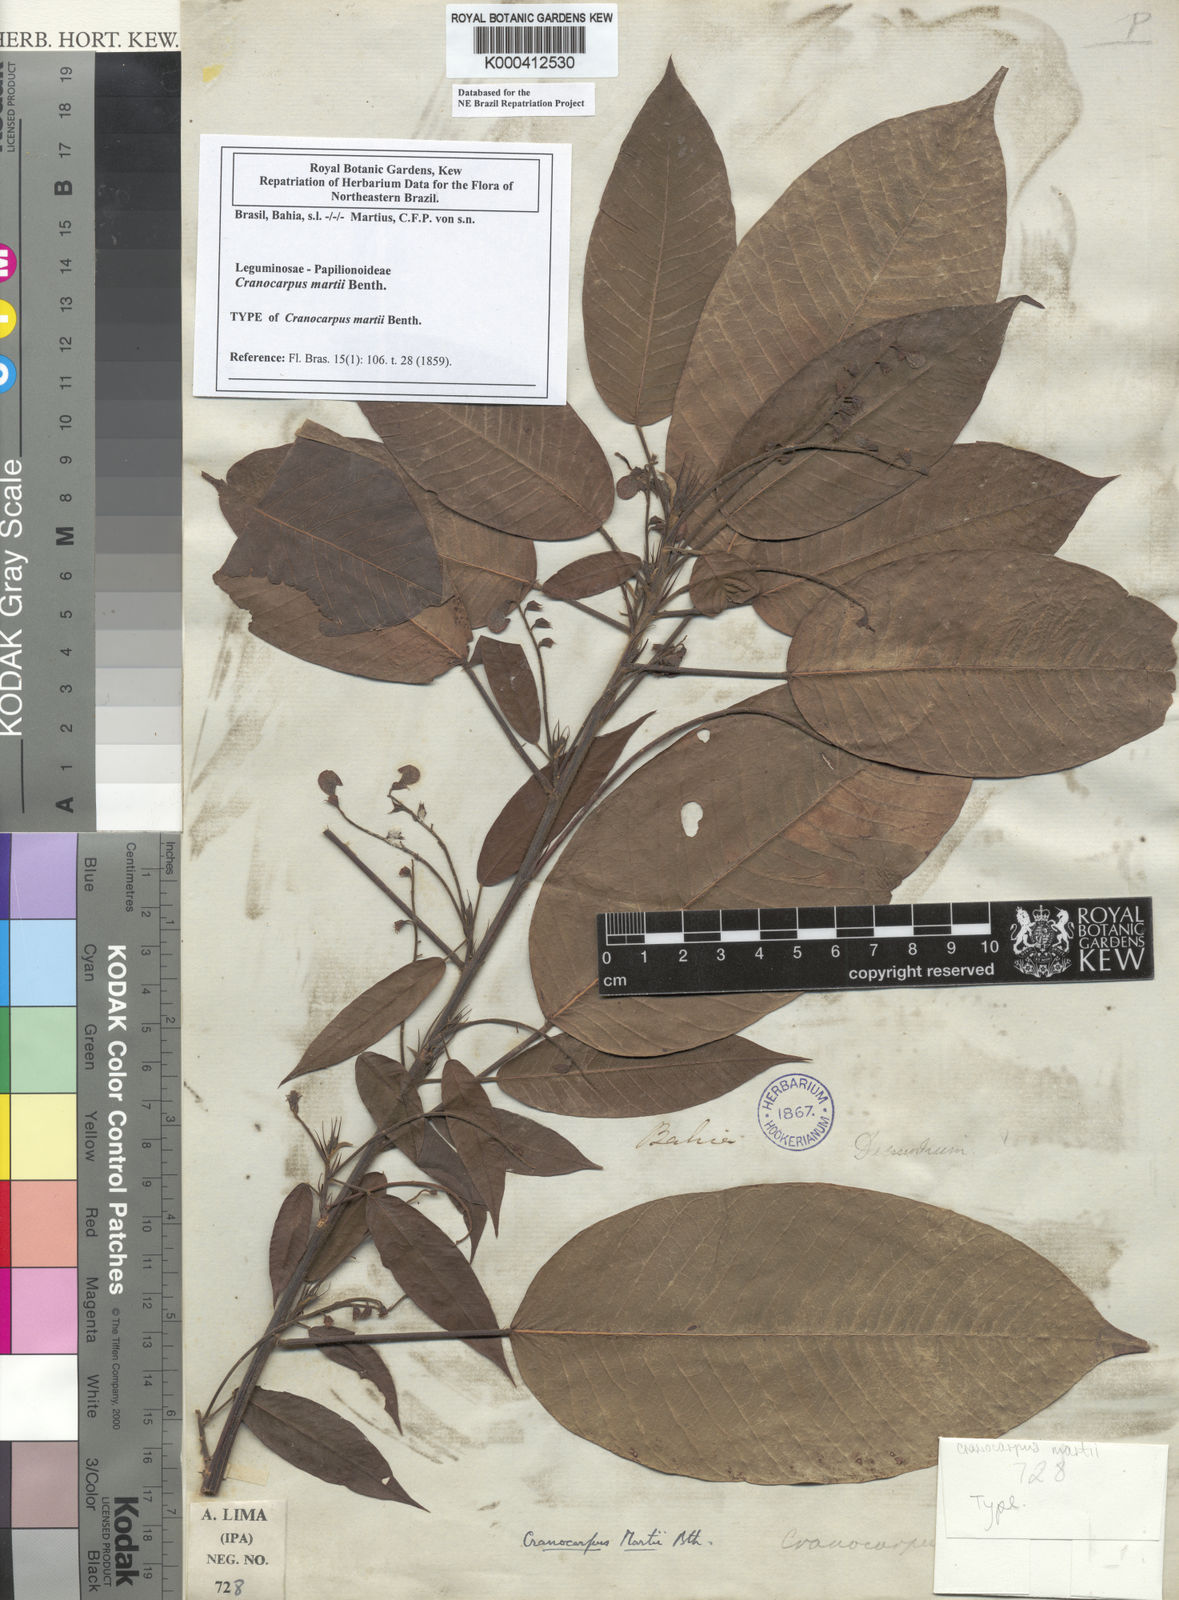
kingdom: Plantae
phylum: Tracheophyta
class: Magnoliopsida
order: Fabales
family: Fabaceae
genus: Cranocarpus
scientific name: Cranocarpus martii
